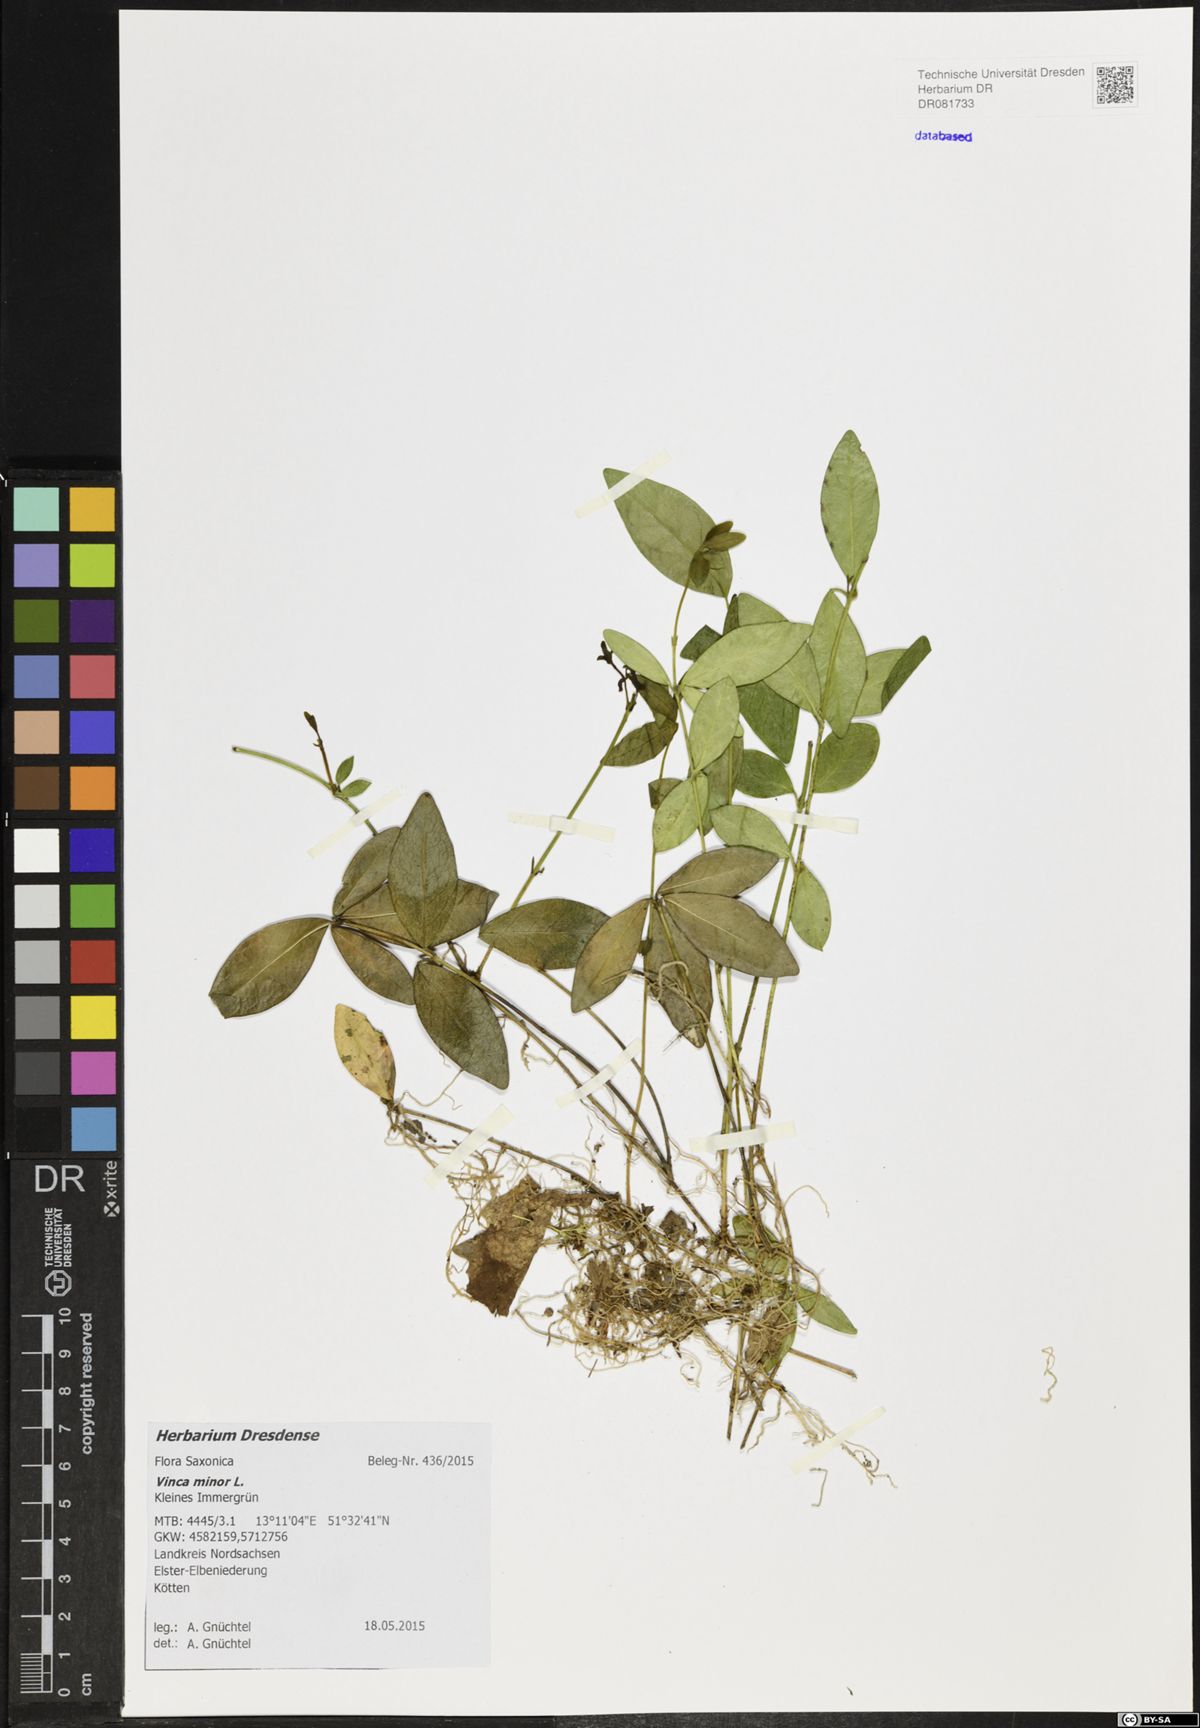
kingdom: Plantae
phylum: Tracheophyta
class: Magnoliopsida
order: Gentianales
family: Apocynaceae
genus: Vinca
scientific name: Vinca minor
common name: Lesser periwinkle
